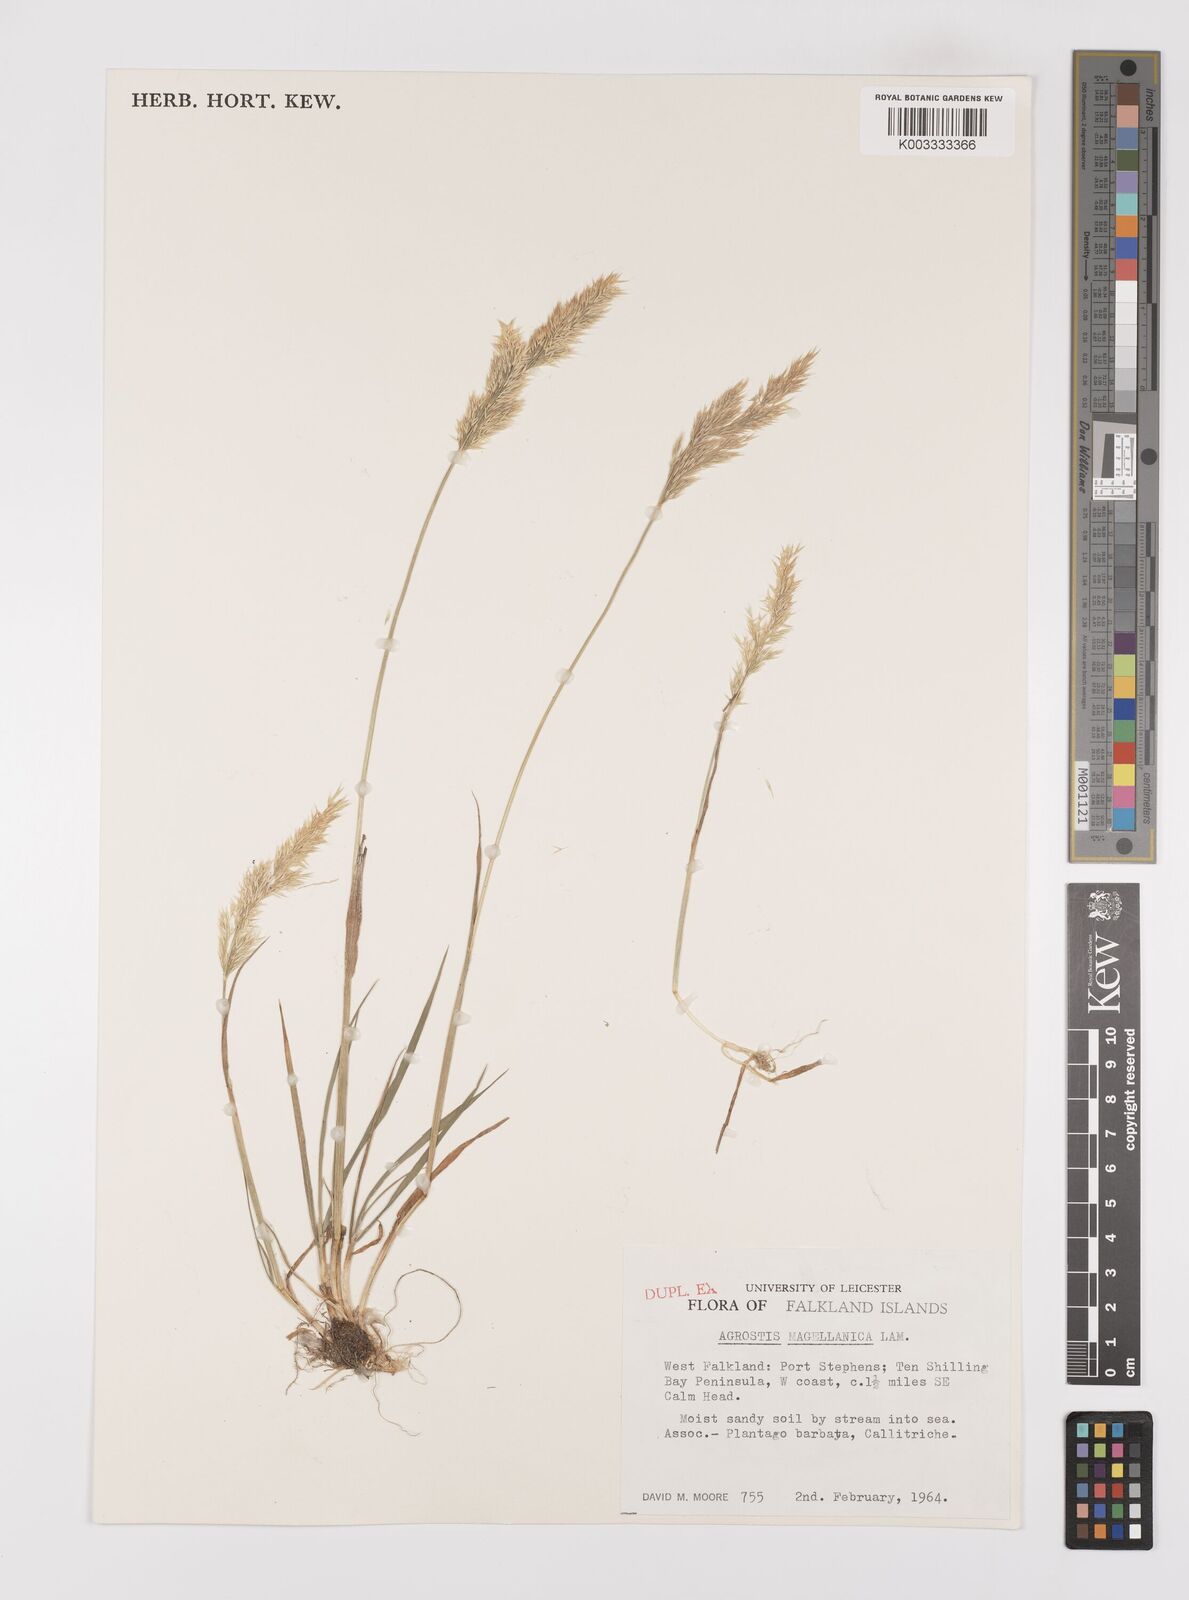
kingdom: Plantae
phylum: Tracheophyta
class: Liliopsida
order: Poales
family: Poaceae
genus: Polypogon
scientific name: Polypogon magellanicus
